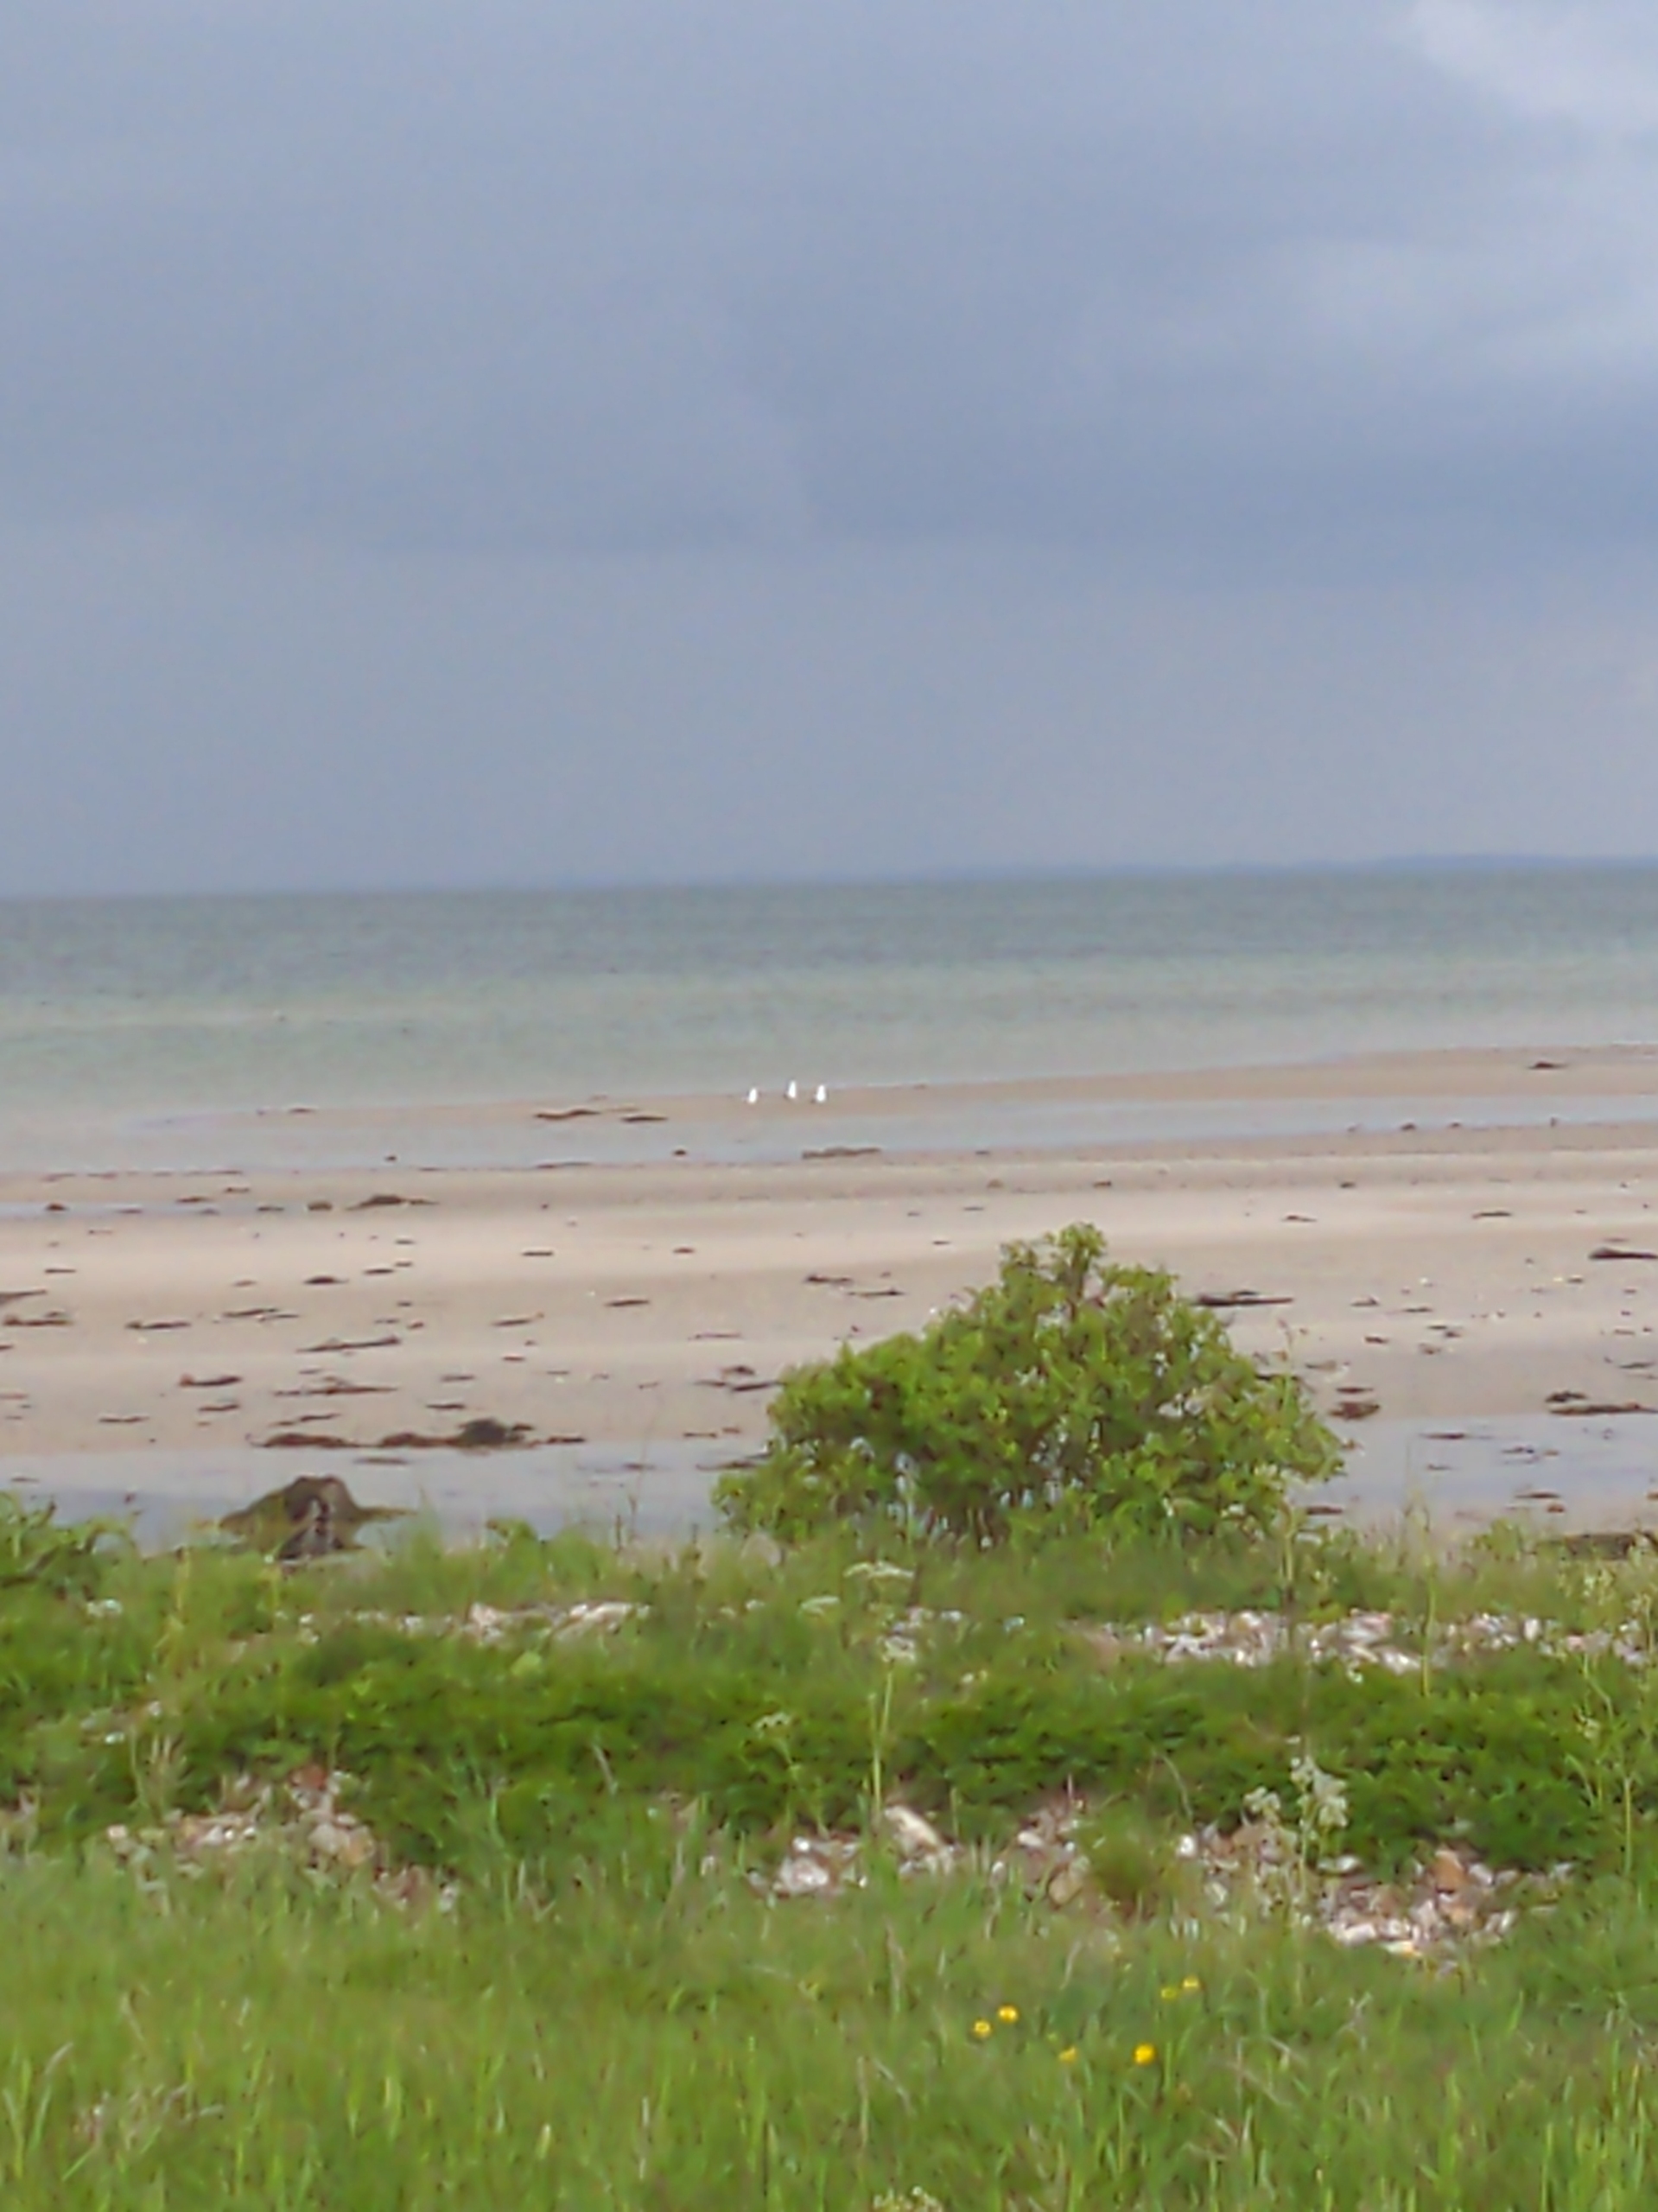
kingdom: Animalia
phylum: Chordata
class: Aves
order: Charadriiformes
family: Laridae
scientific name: Laridae
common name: Måger & terner
